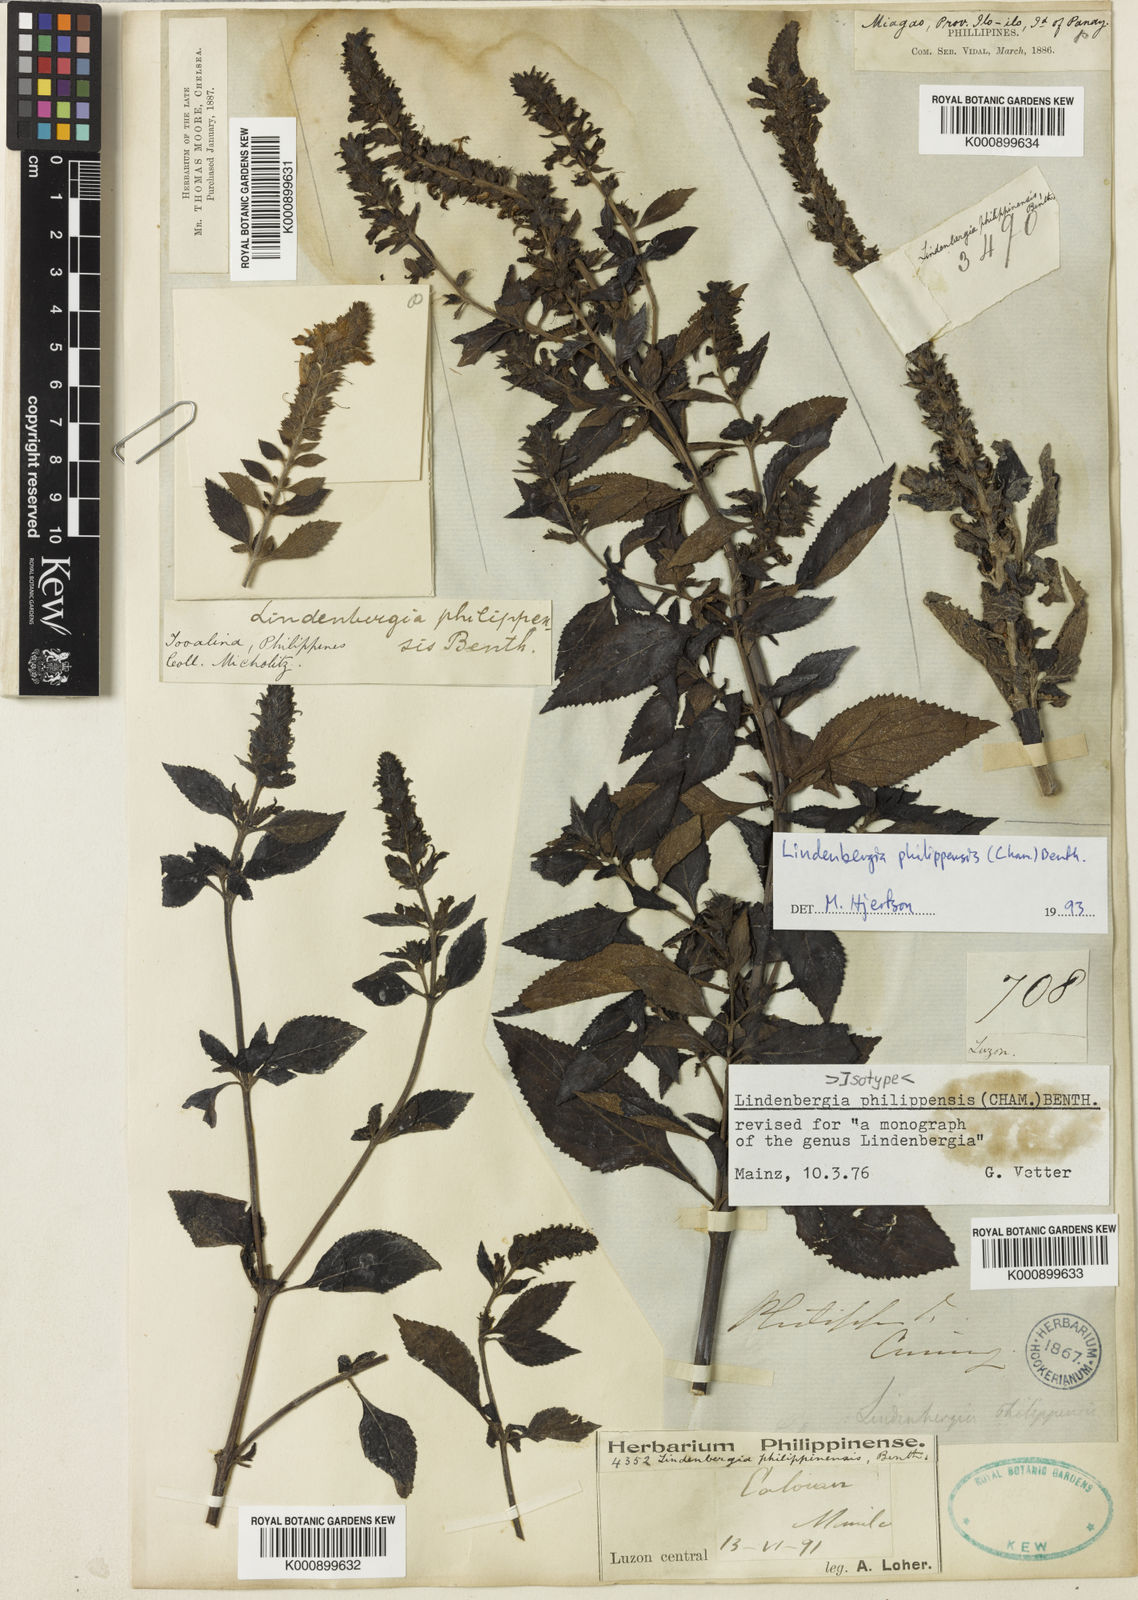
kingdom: Plantae
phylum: Tracheophyta
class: Magnoliopsida
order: Lamiales
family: Orobanchaceae
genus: Lindenbergia
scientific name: Lindenbergia philippensis
